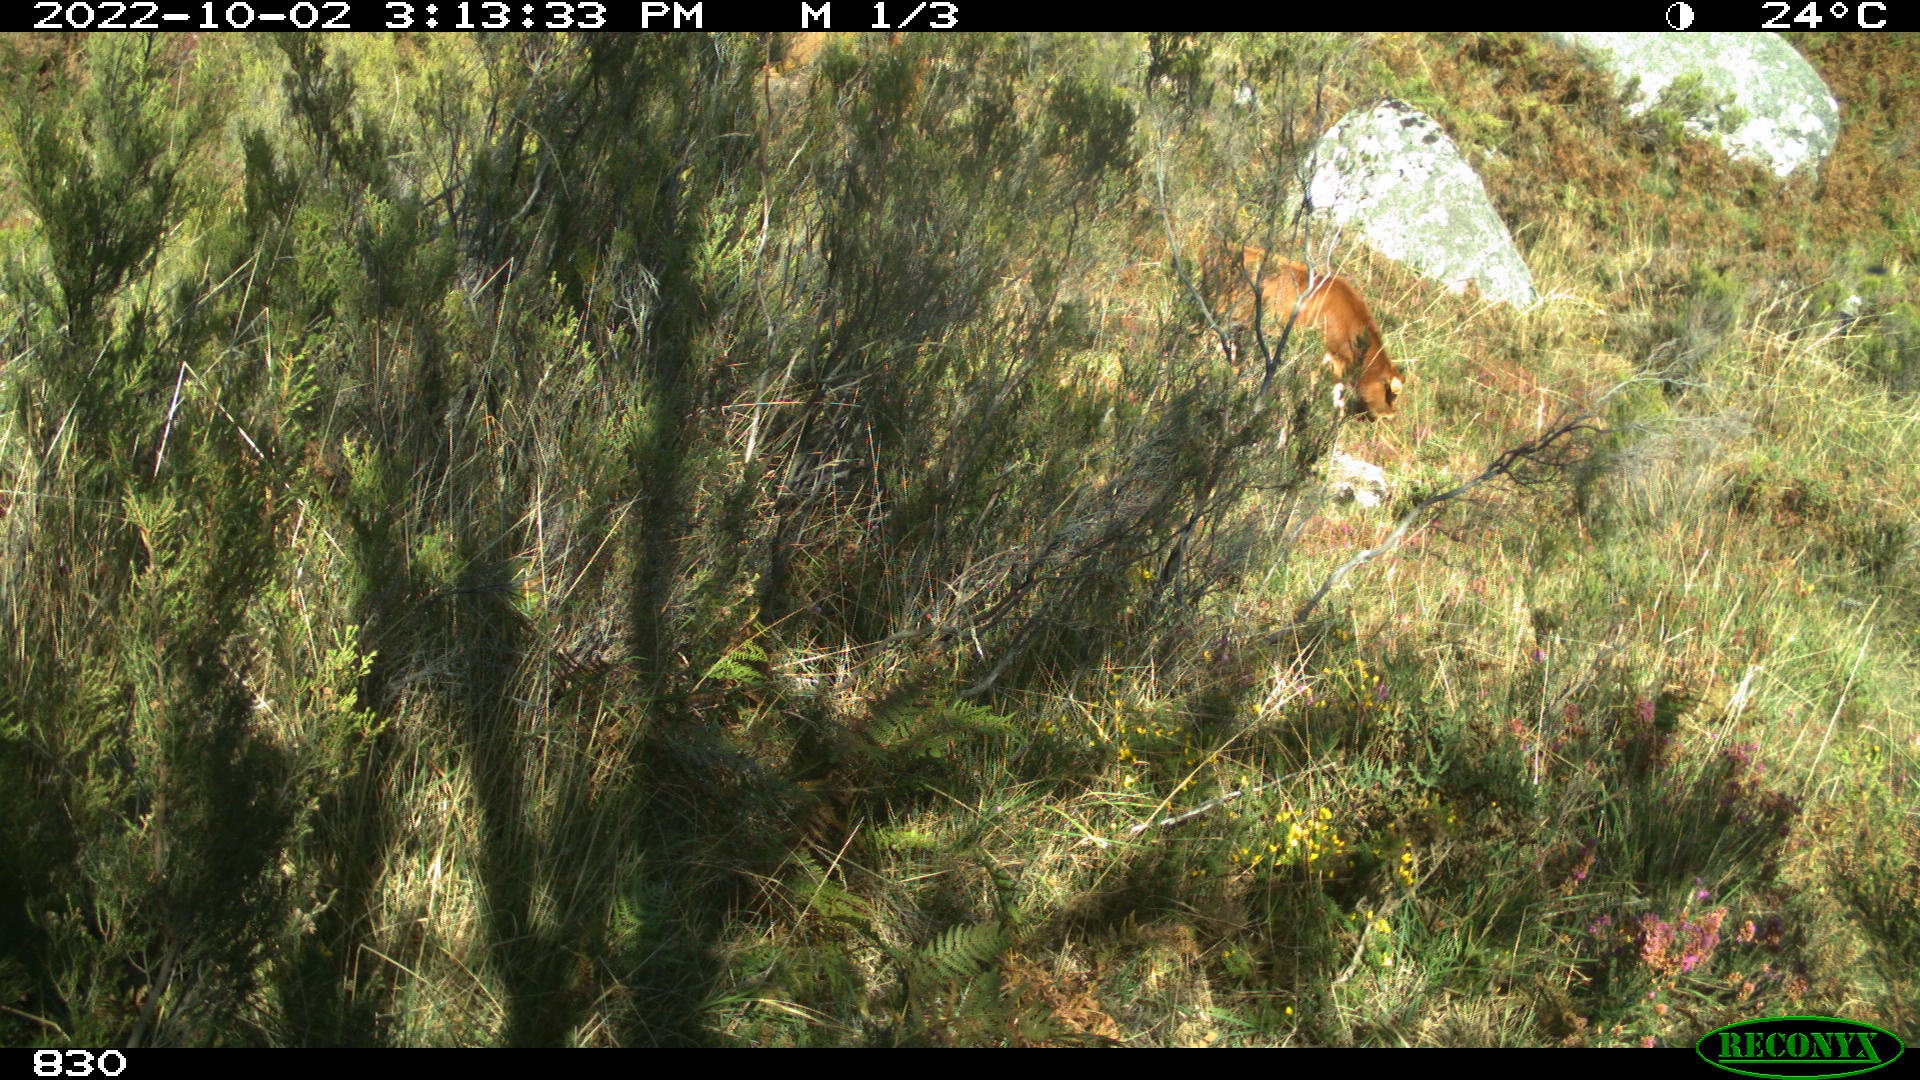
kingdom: Animalia
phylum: Chordata
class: Mammalia
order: Artiodactyla
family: Bovidae
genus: Bos
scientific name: Bos taurus
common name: Domesticated cattle
